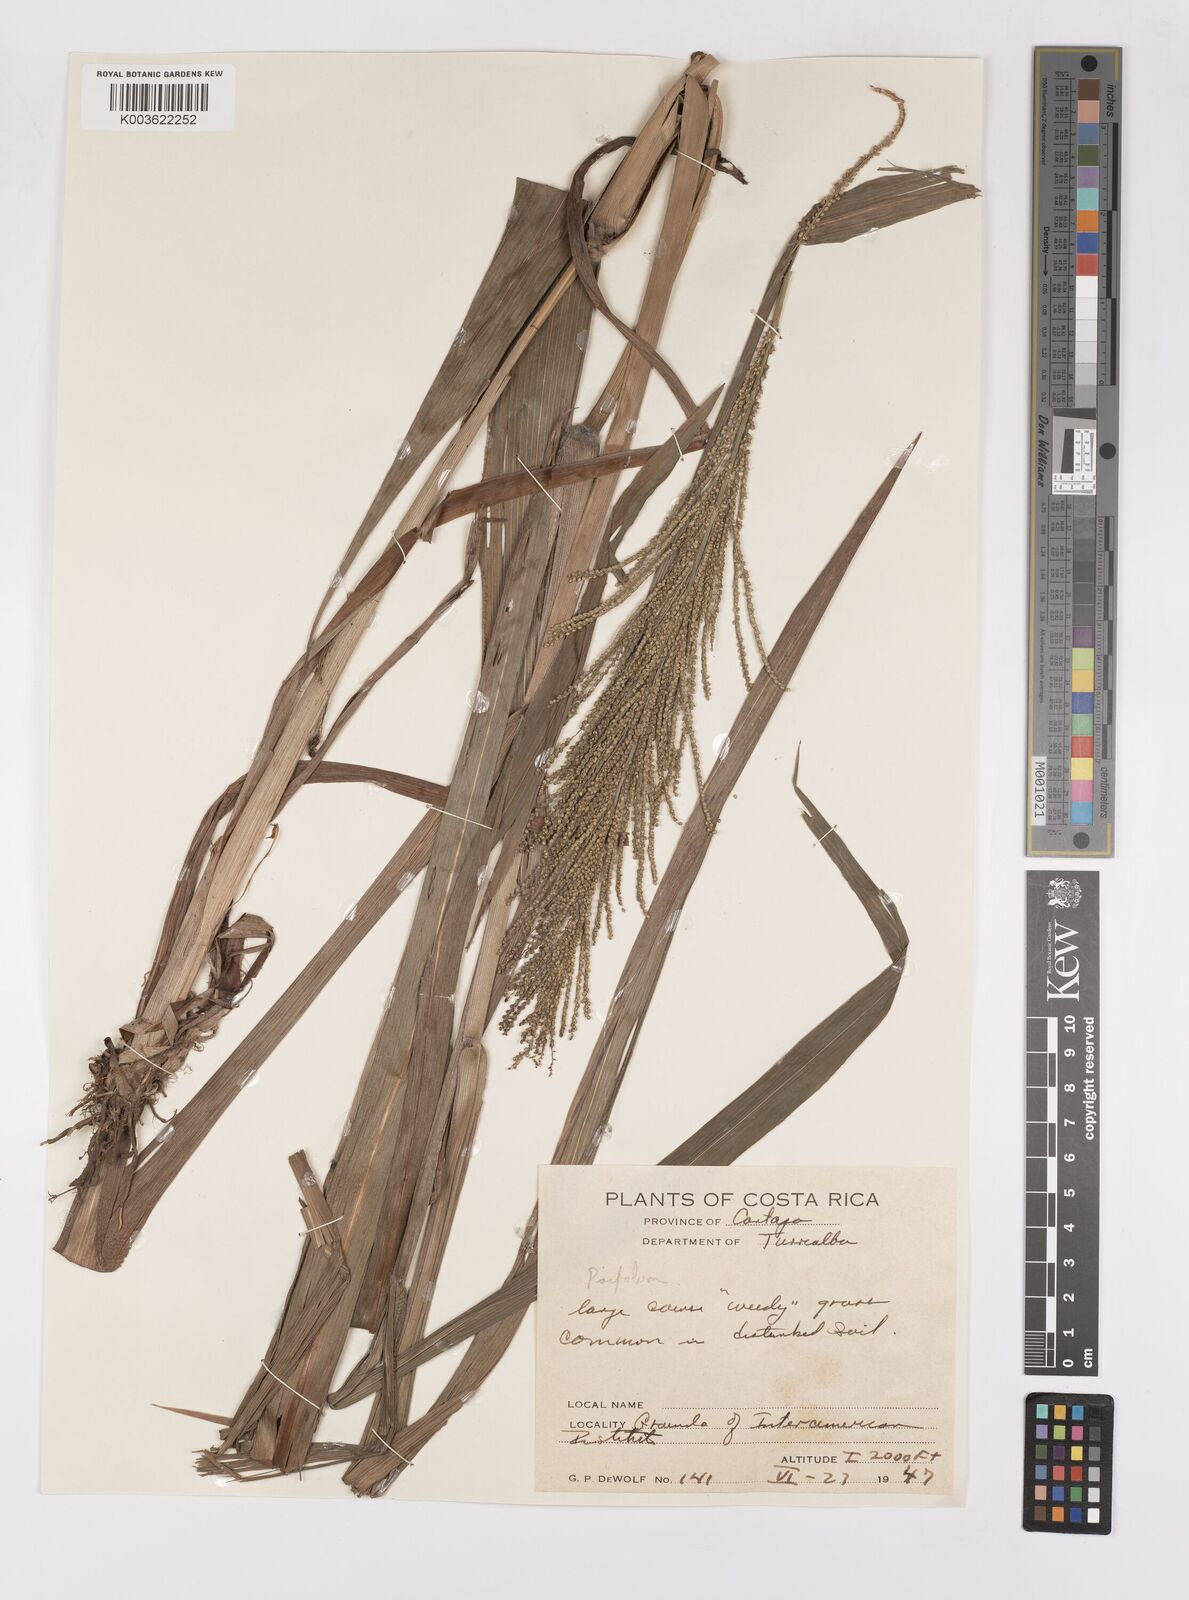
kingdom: Plantae
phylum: Tracheophyta
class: Liliopsida
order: Poales
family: Poaceae
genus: Paspalum
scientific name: Paspalum
